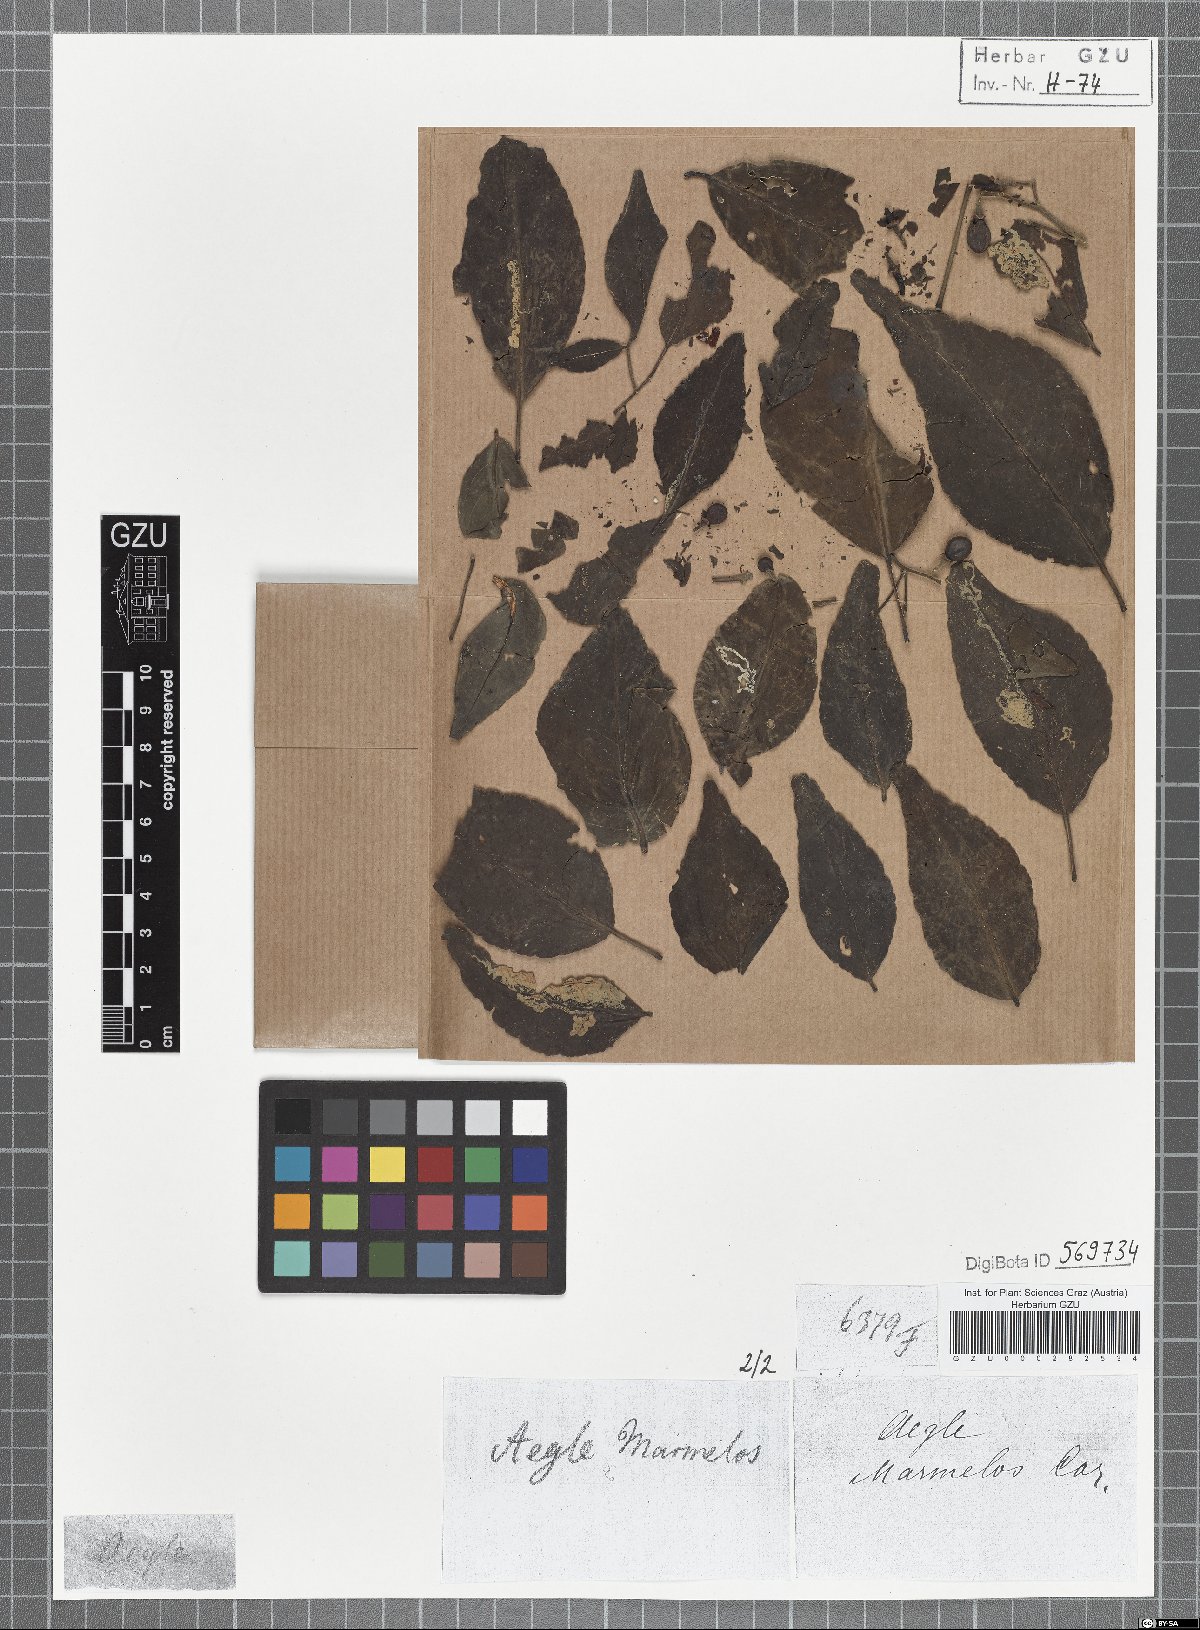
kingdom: Plantae
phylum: Tracheophyta
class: Magnoliopsida
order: Sapindales
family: Rutaceae
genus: Aegle
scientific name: Aegle marmelos
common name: Bael
